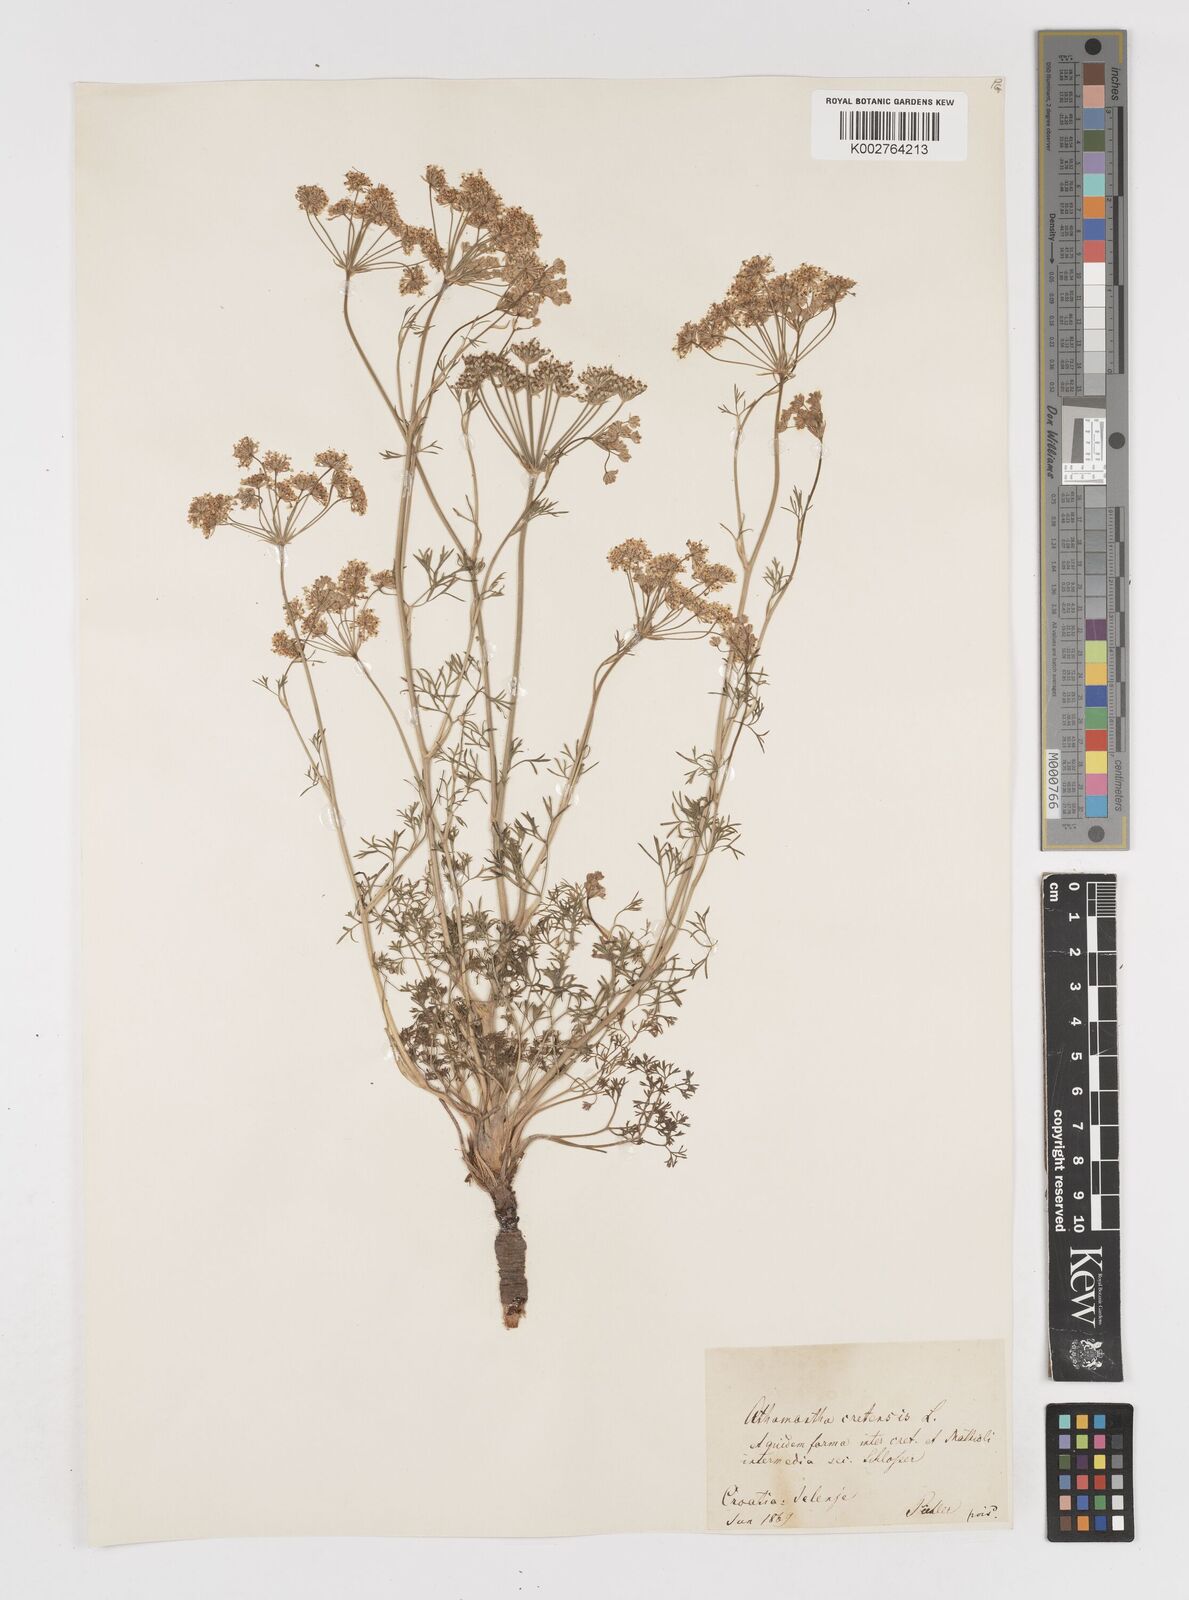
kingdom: Plantae
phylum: Tracheophyta
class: Magnoliopsida
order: Apiales
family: Apiaceae
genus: Athamanta
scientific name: Athamanta cretensis
